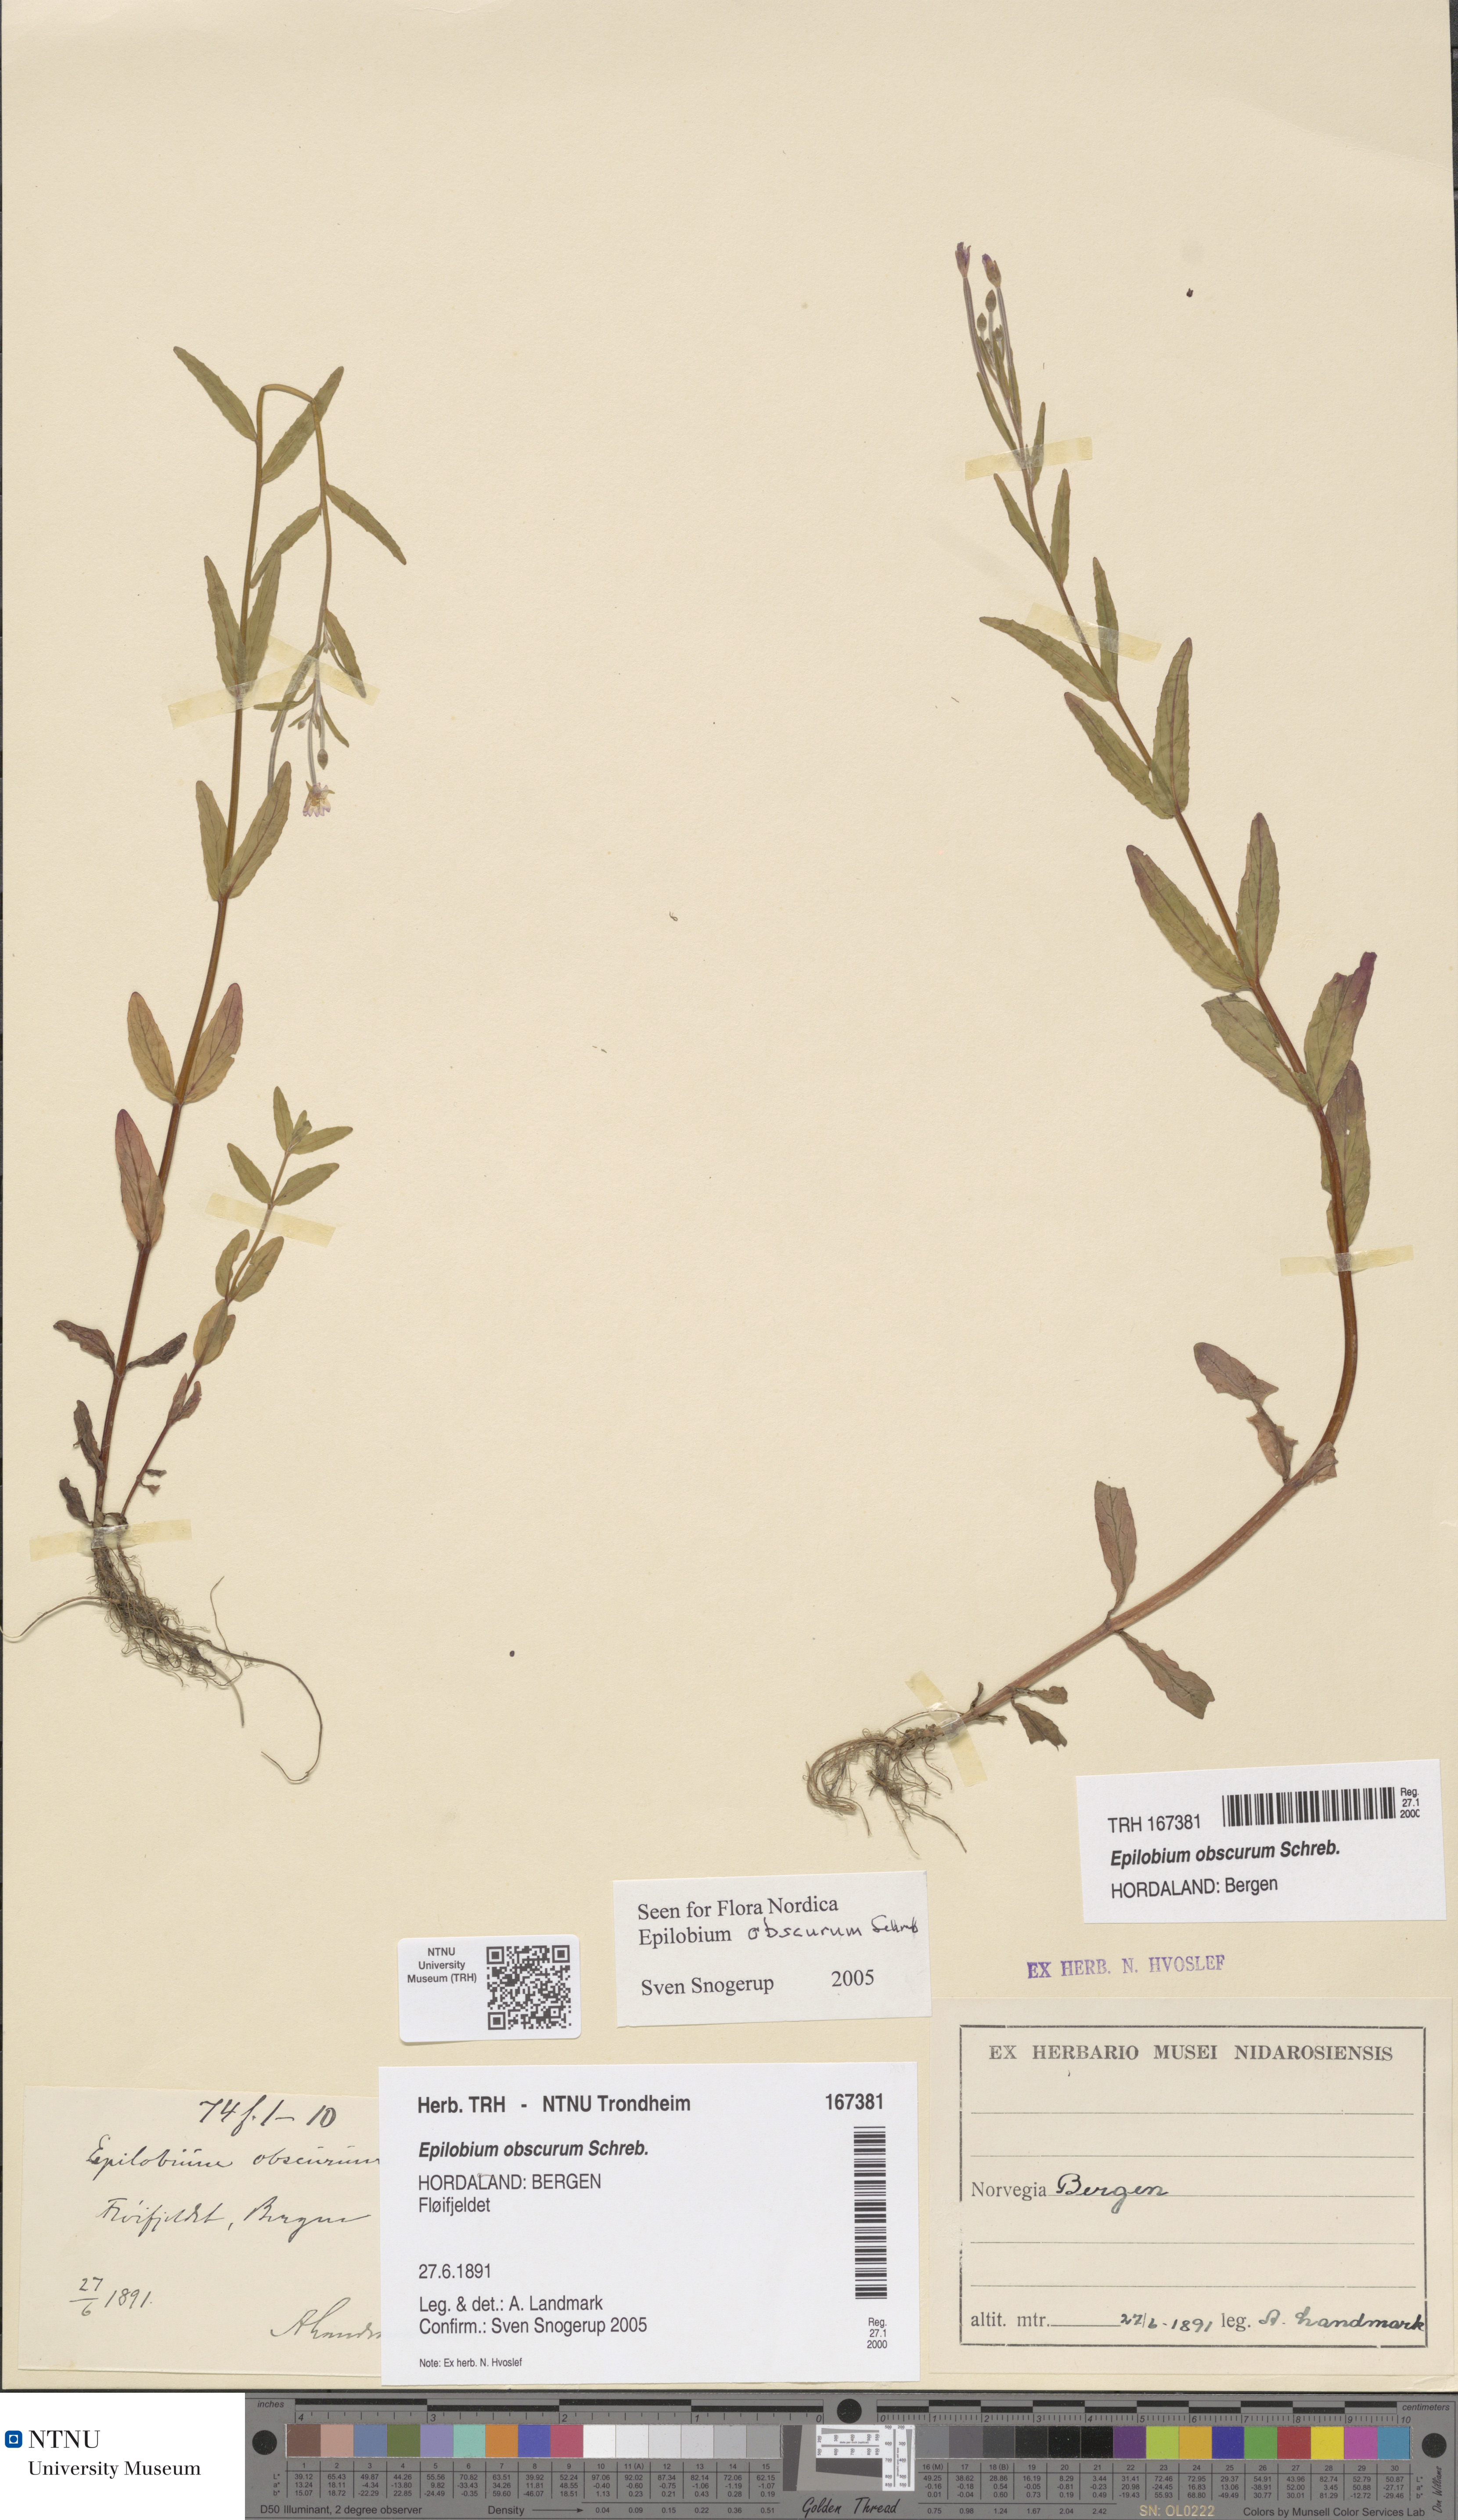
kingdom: Plantae
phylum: Tracheophyta
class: Magnoliopsida
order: Myrtales
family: Onagraceae
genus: Epilobium
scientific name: Epilobium obscurum
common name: Short-fruited willowherb
